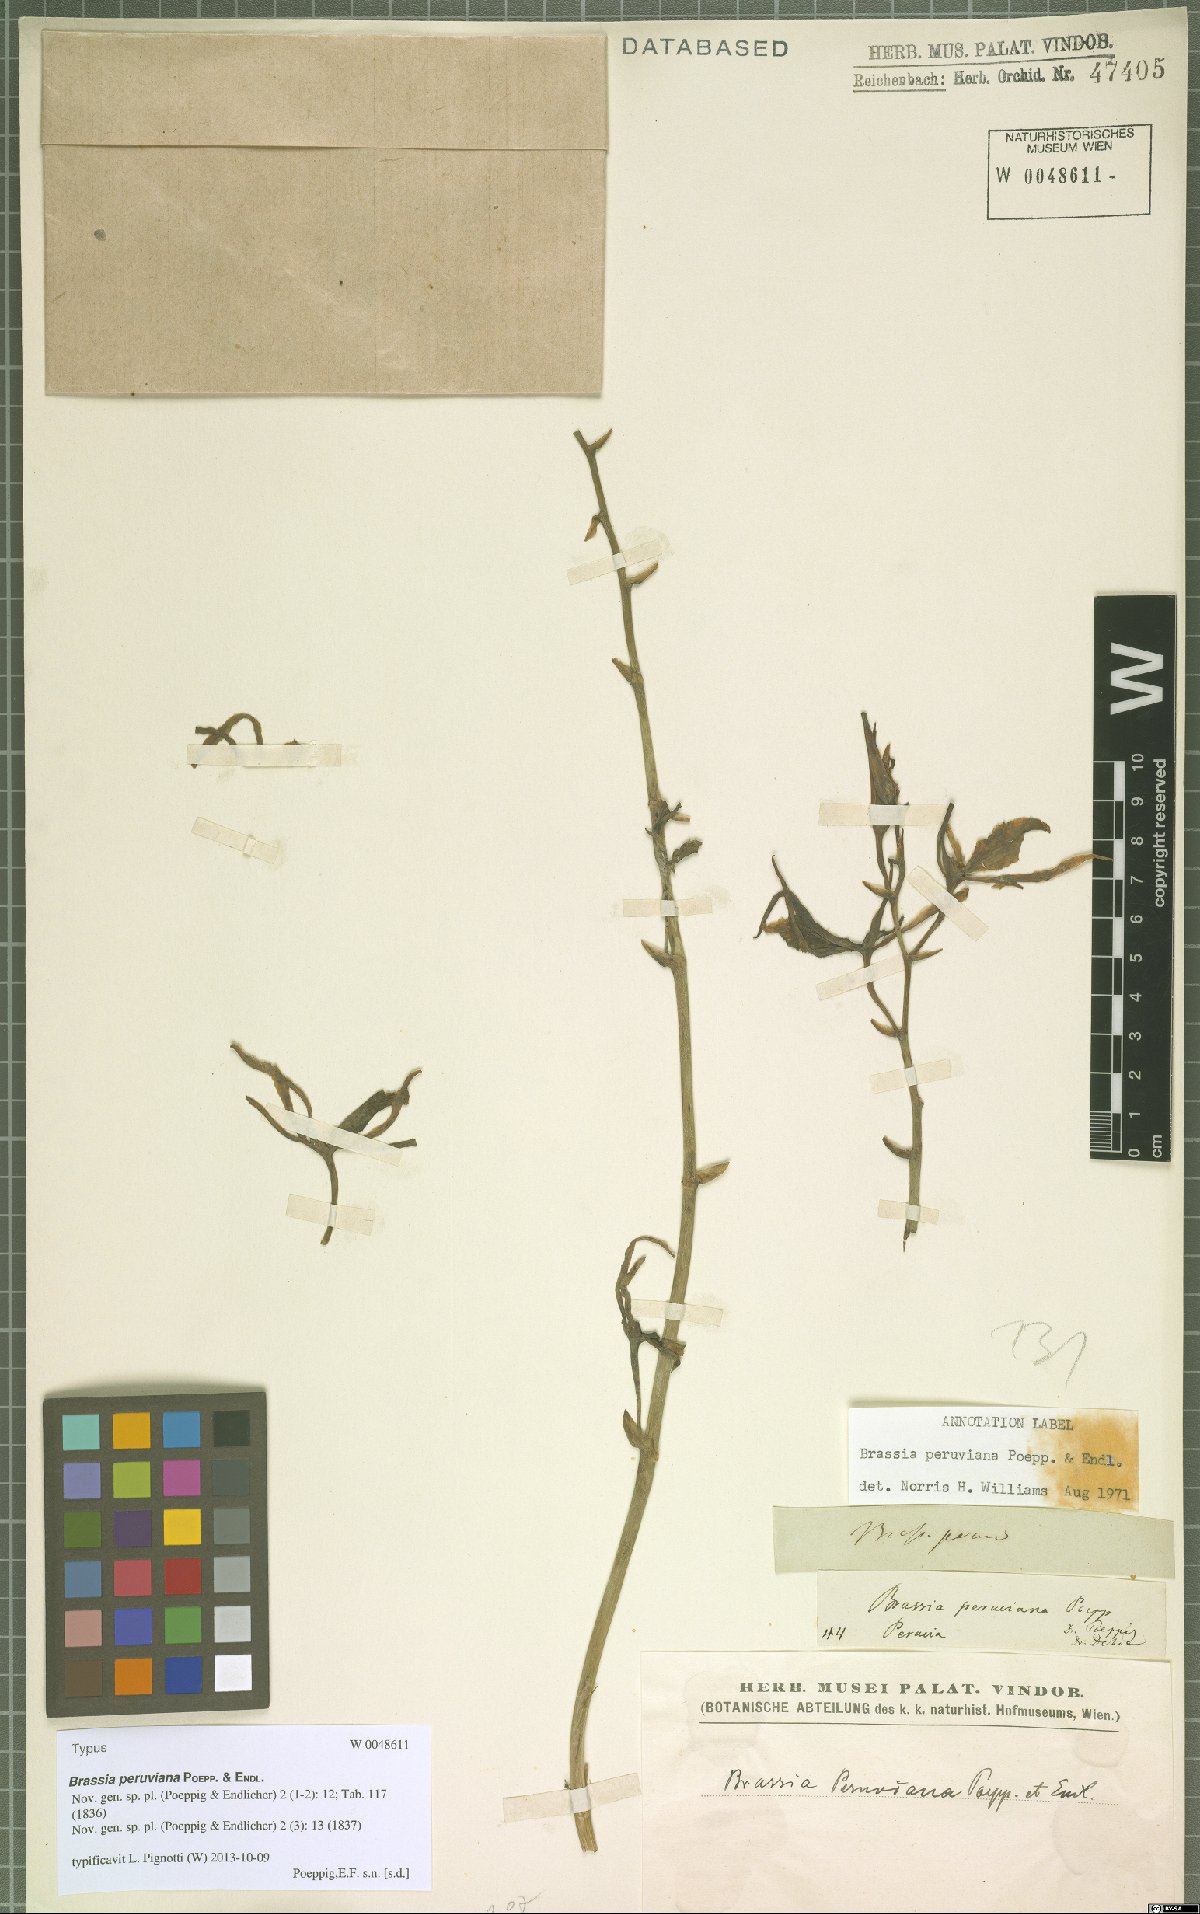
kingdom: Plantae
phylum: Tracheophyta
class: Liliopsida
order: Asparagales
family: Orchidaceae
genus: Brassia
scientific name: Brassia peruviana
